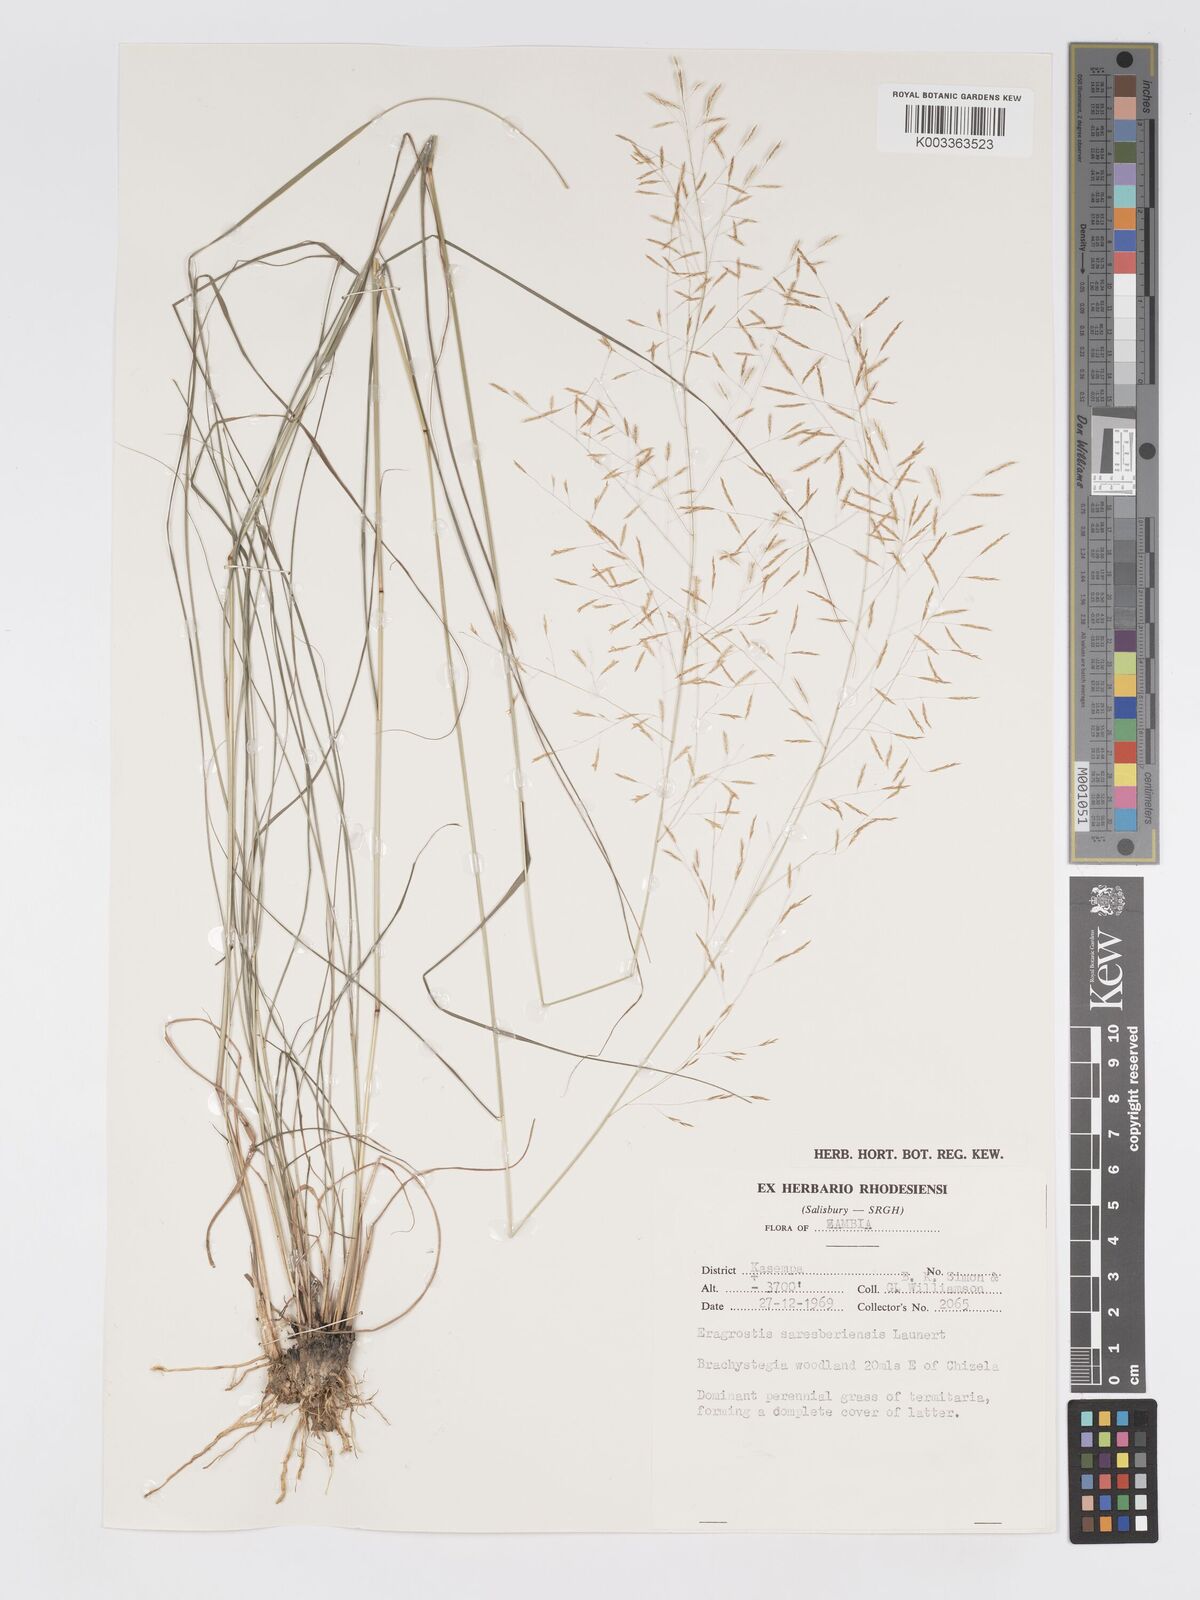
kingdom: Plantae
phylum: Tracheophyta
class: Liliopsida
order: Poales
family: Poaceae
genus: Eragrostis
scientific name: Eragrostis saresberiensis
